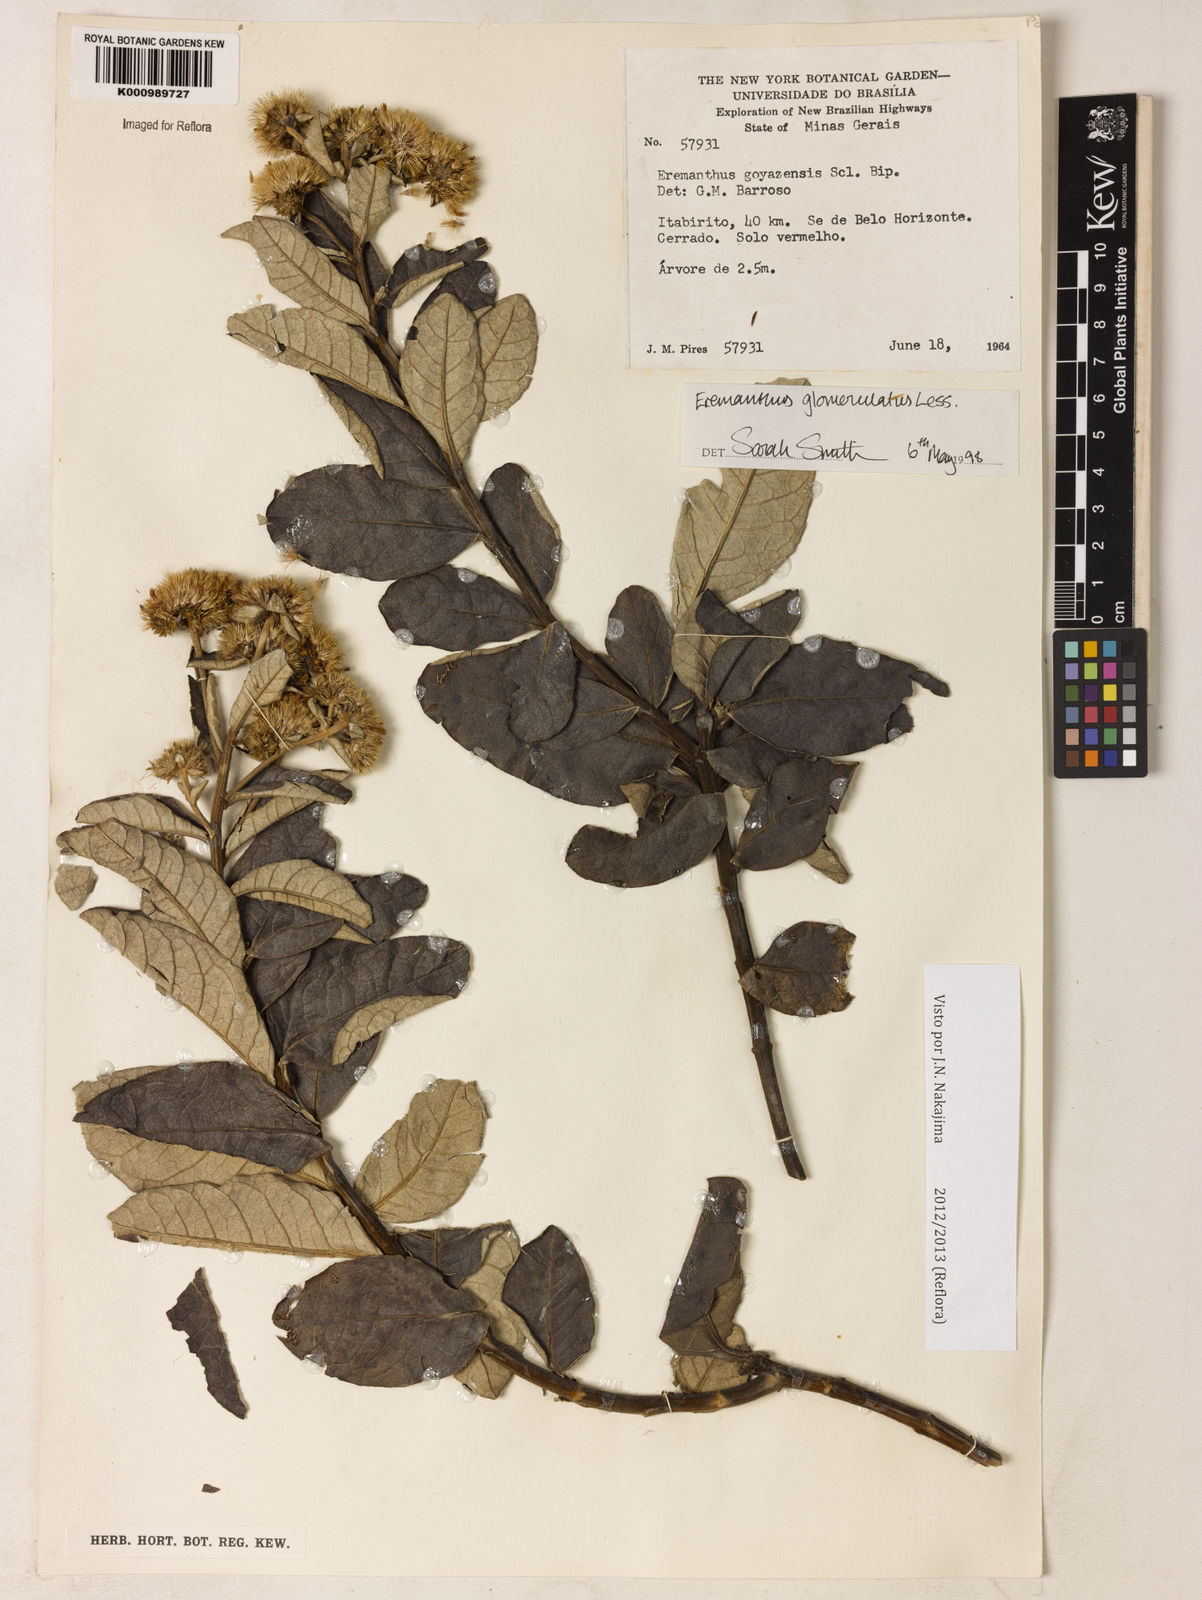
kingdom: Plantae
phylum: Tracheophyta
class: Magnoliopsida
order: Asterales
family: Asteraceae
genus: Eremanthus
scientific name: Eremanthus glomerulatus
